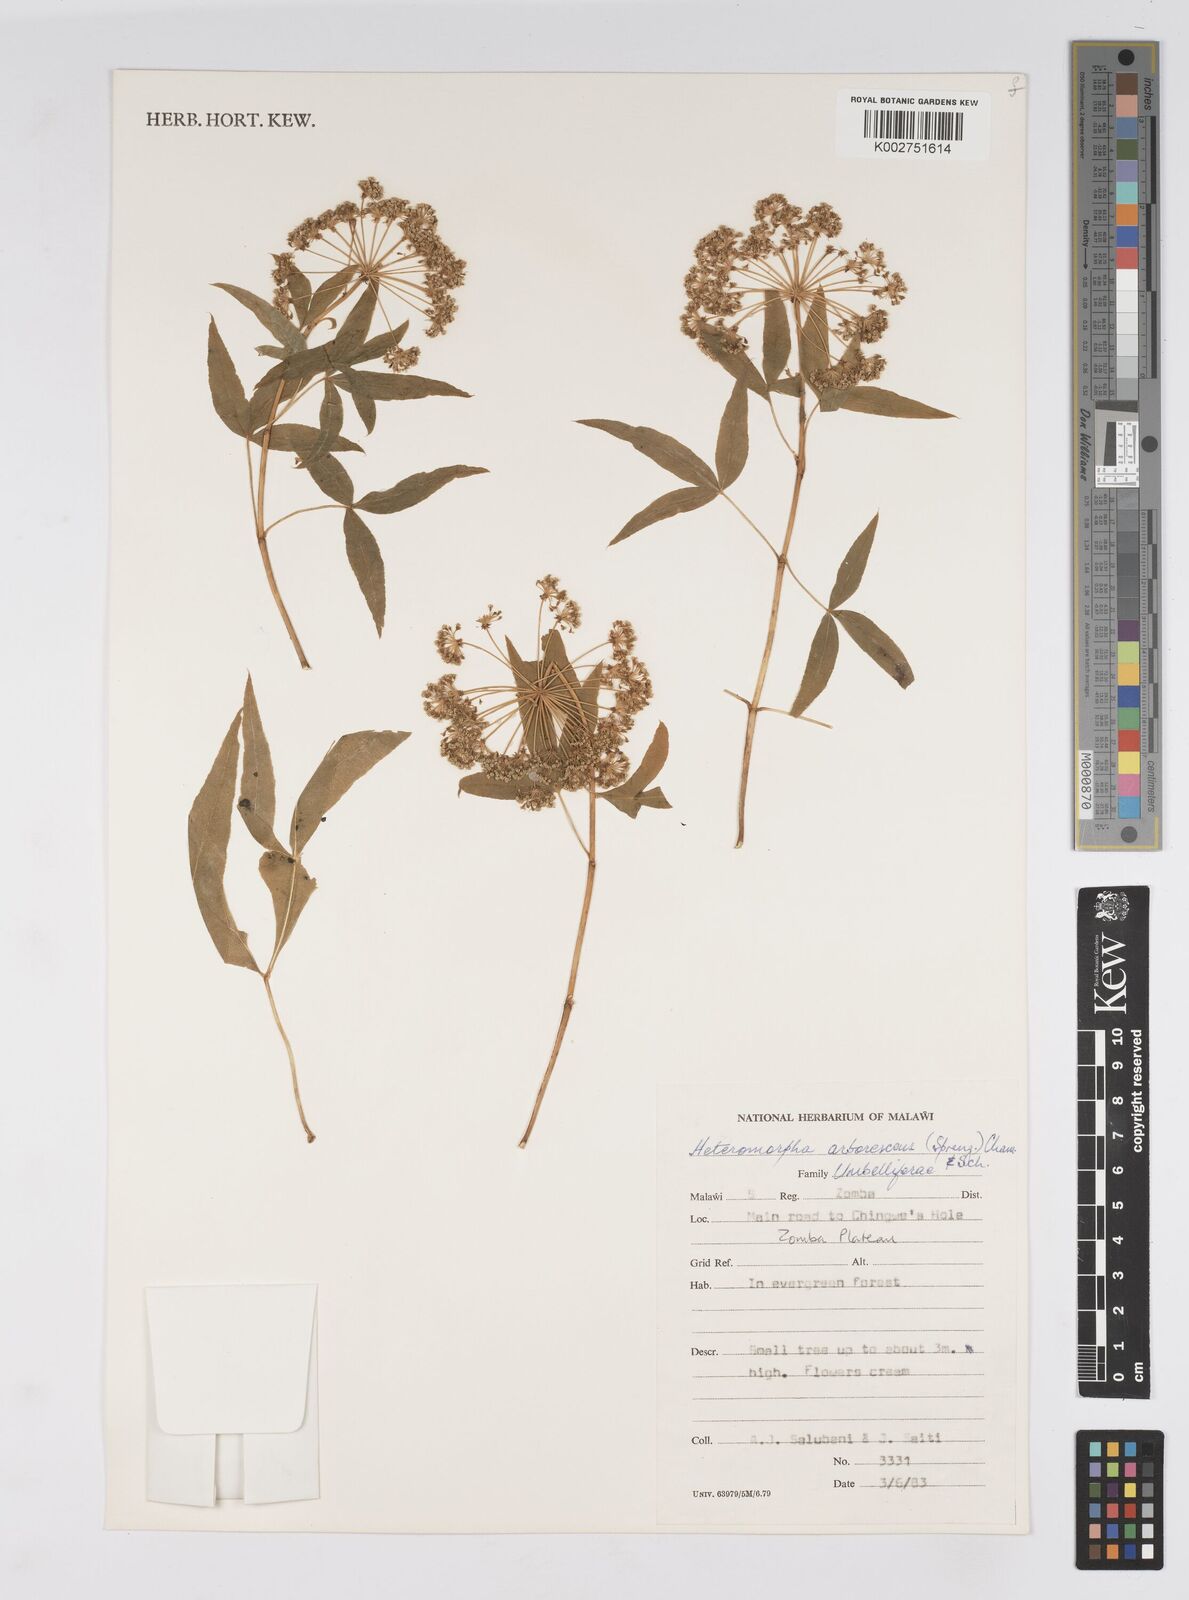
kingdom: Plantae
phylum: Tracheophyta
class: Magnoliopsida
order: Apiales
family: Apiaceae
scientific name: Apiaceae
